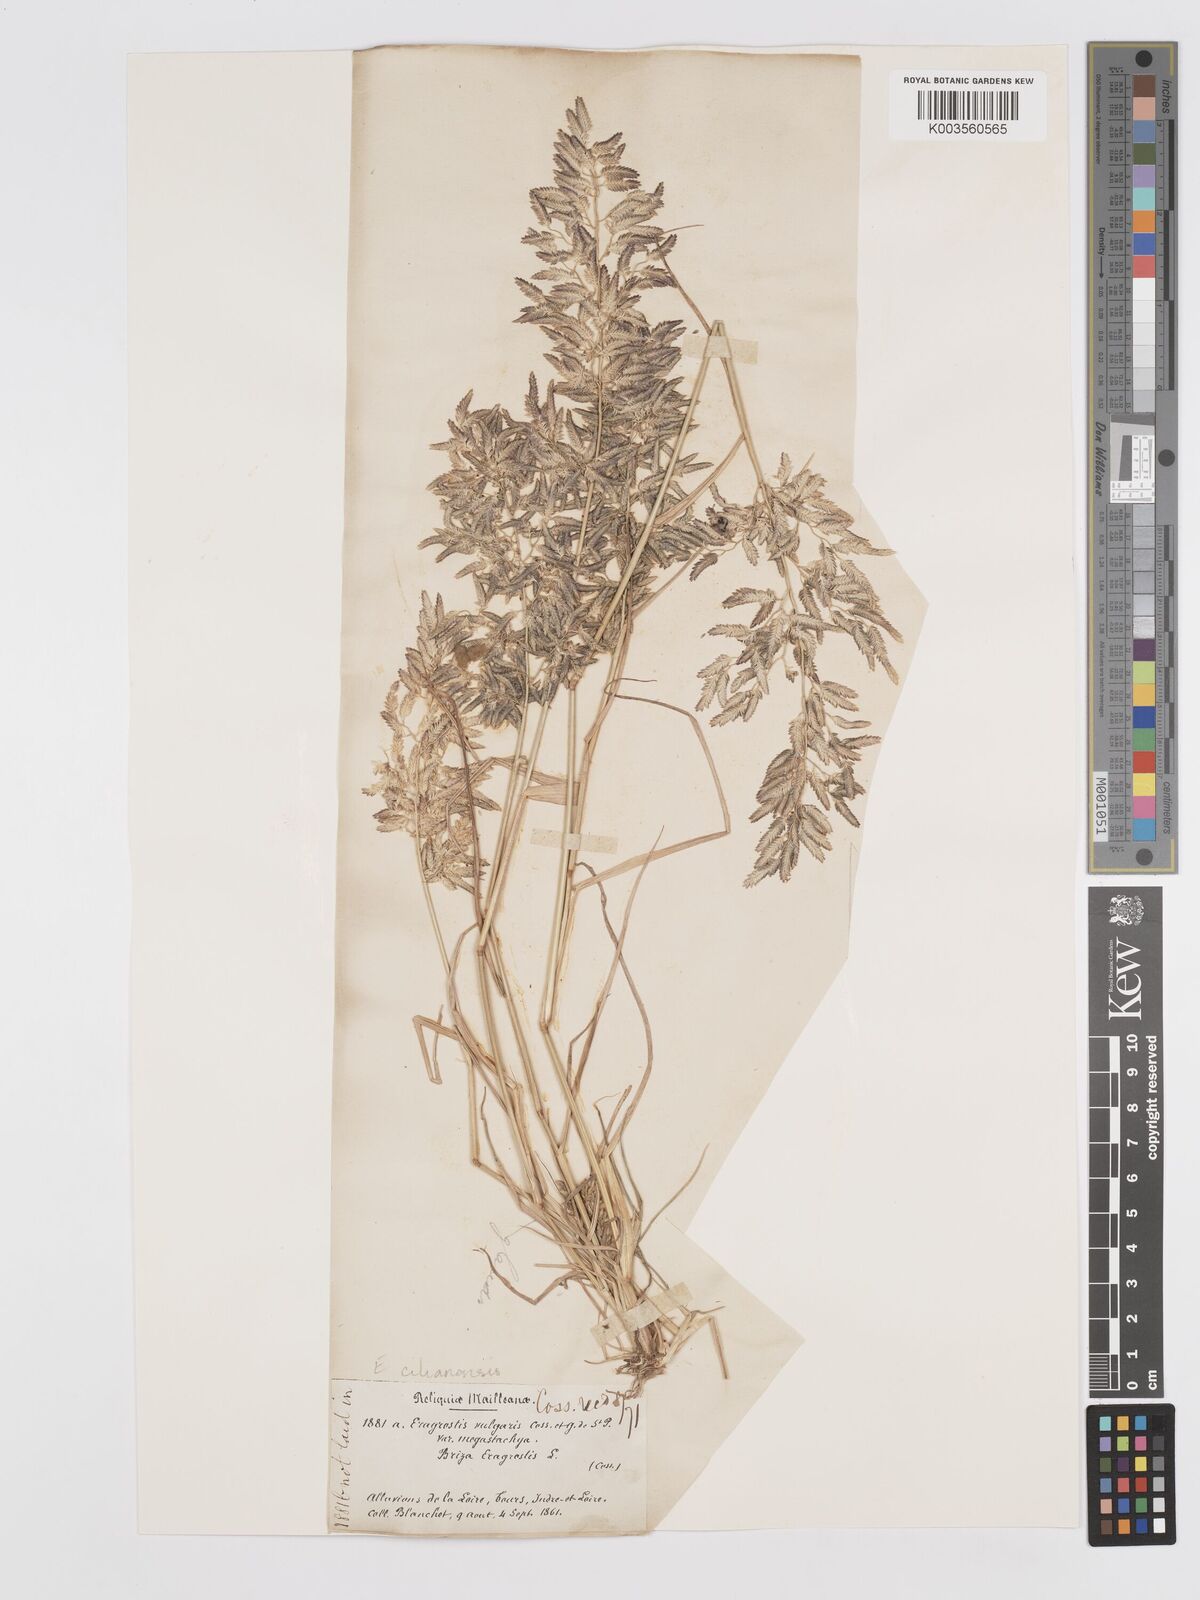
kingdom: Plantae
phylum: Tracheophyta
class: Liliopsida
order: Poales
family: Poaceae
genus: Eragrostis
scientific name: Eragrostis cilianensis
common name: Stinkgrass
